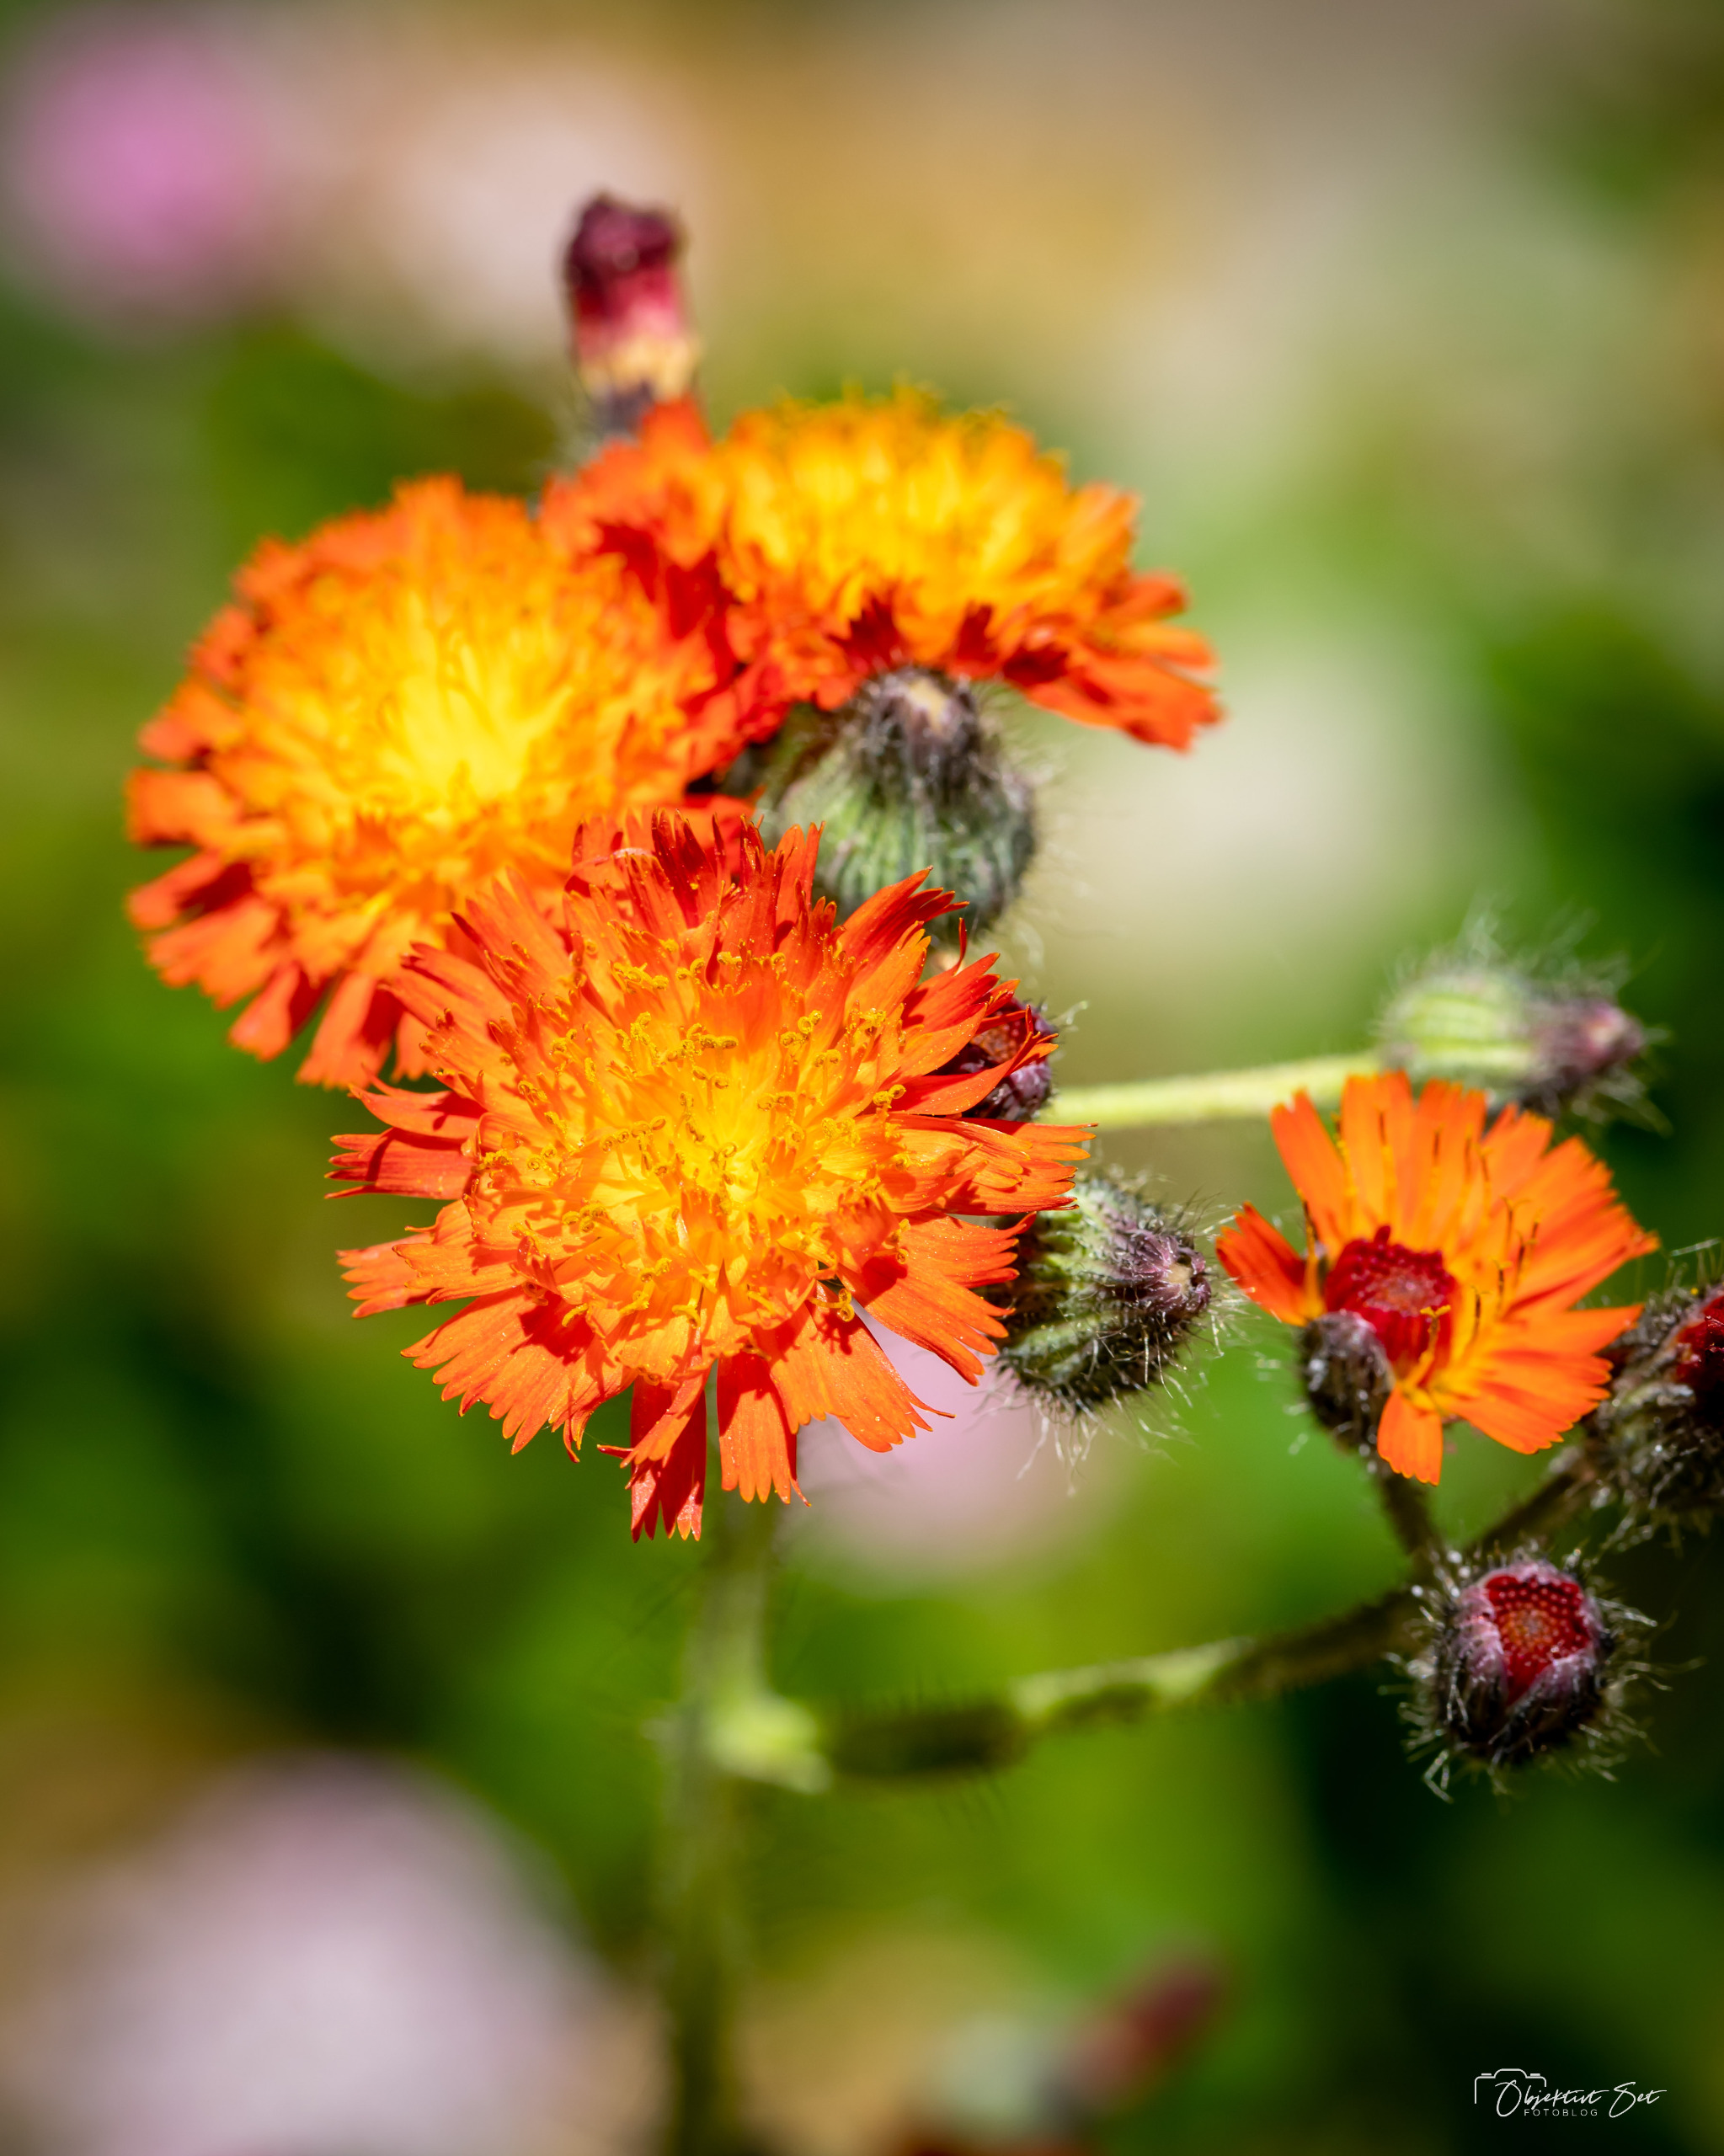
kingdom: Plantae
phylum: Tracheophyta
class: Magnoliopsida
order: Asterales
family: Asteraceae
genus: Pilosella
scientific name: Pilosella aurantiaca
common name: Pomerans-høgeurt
